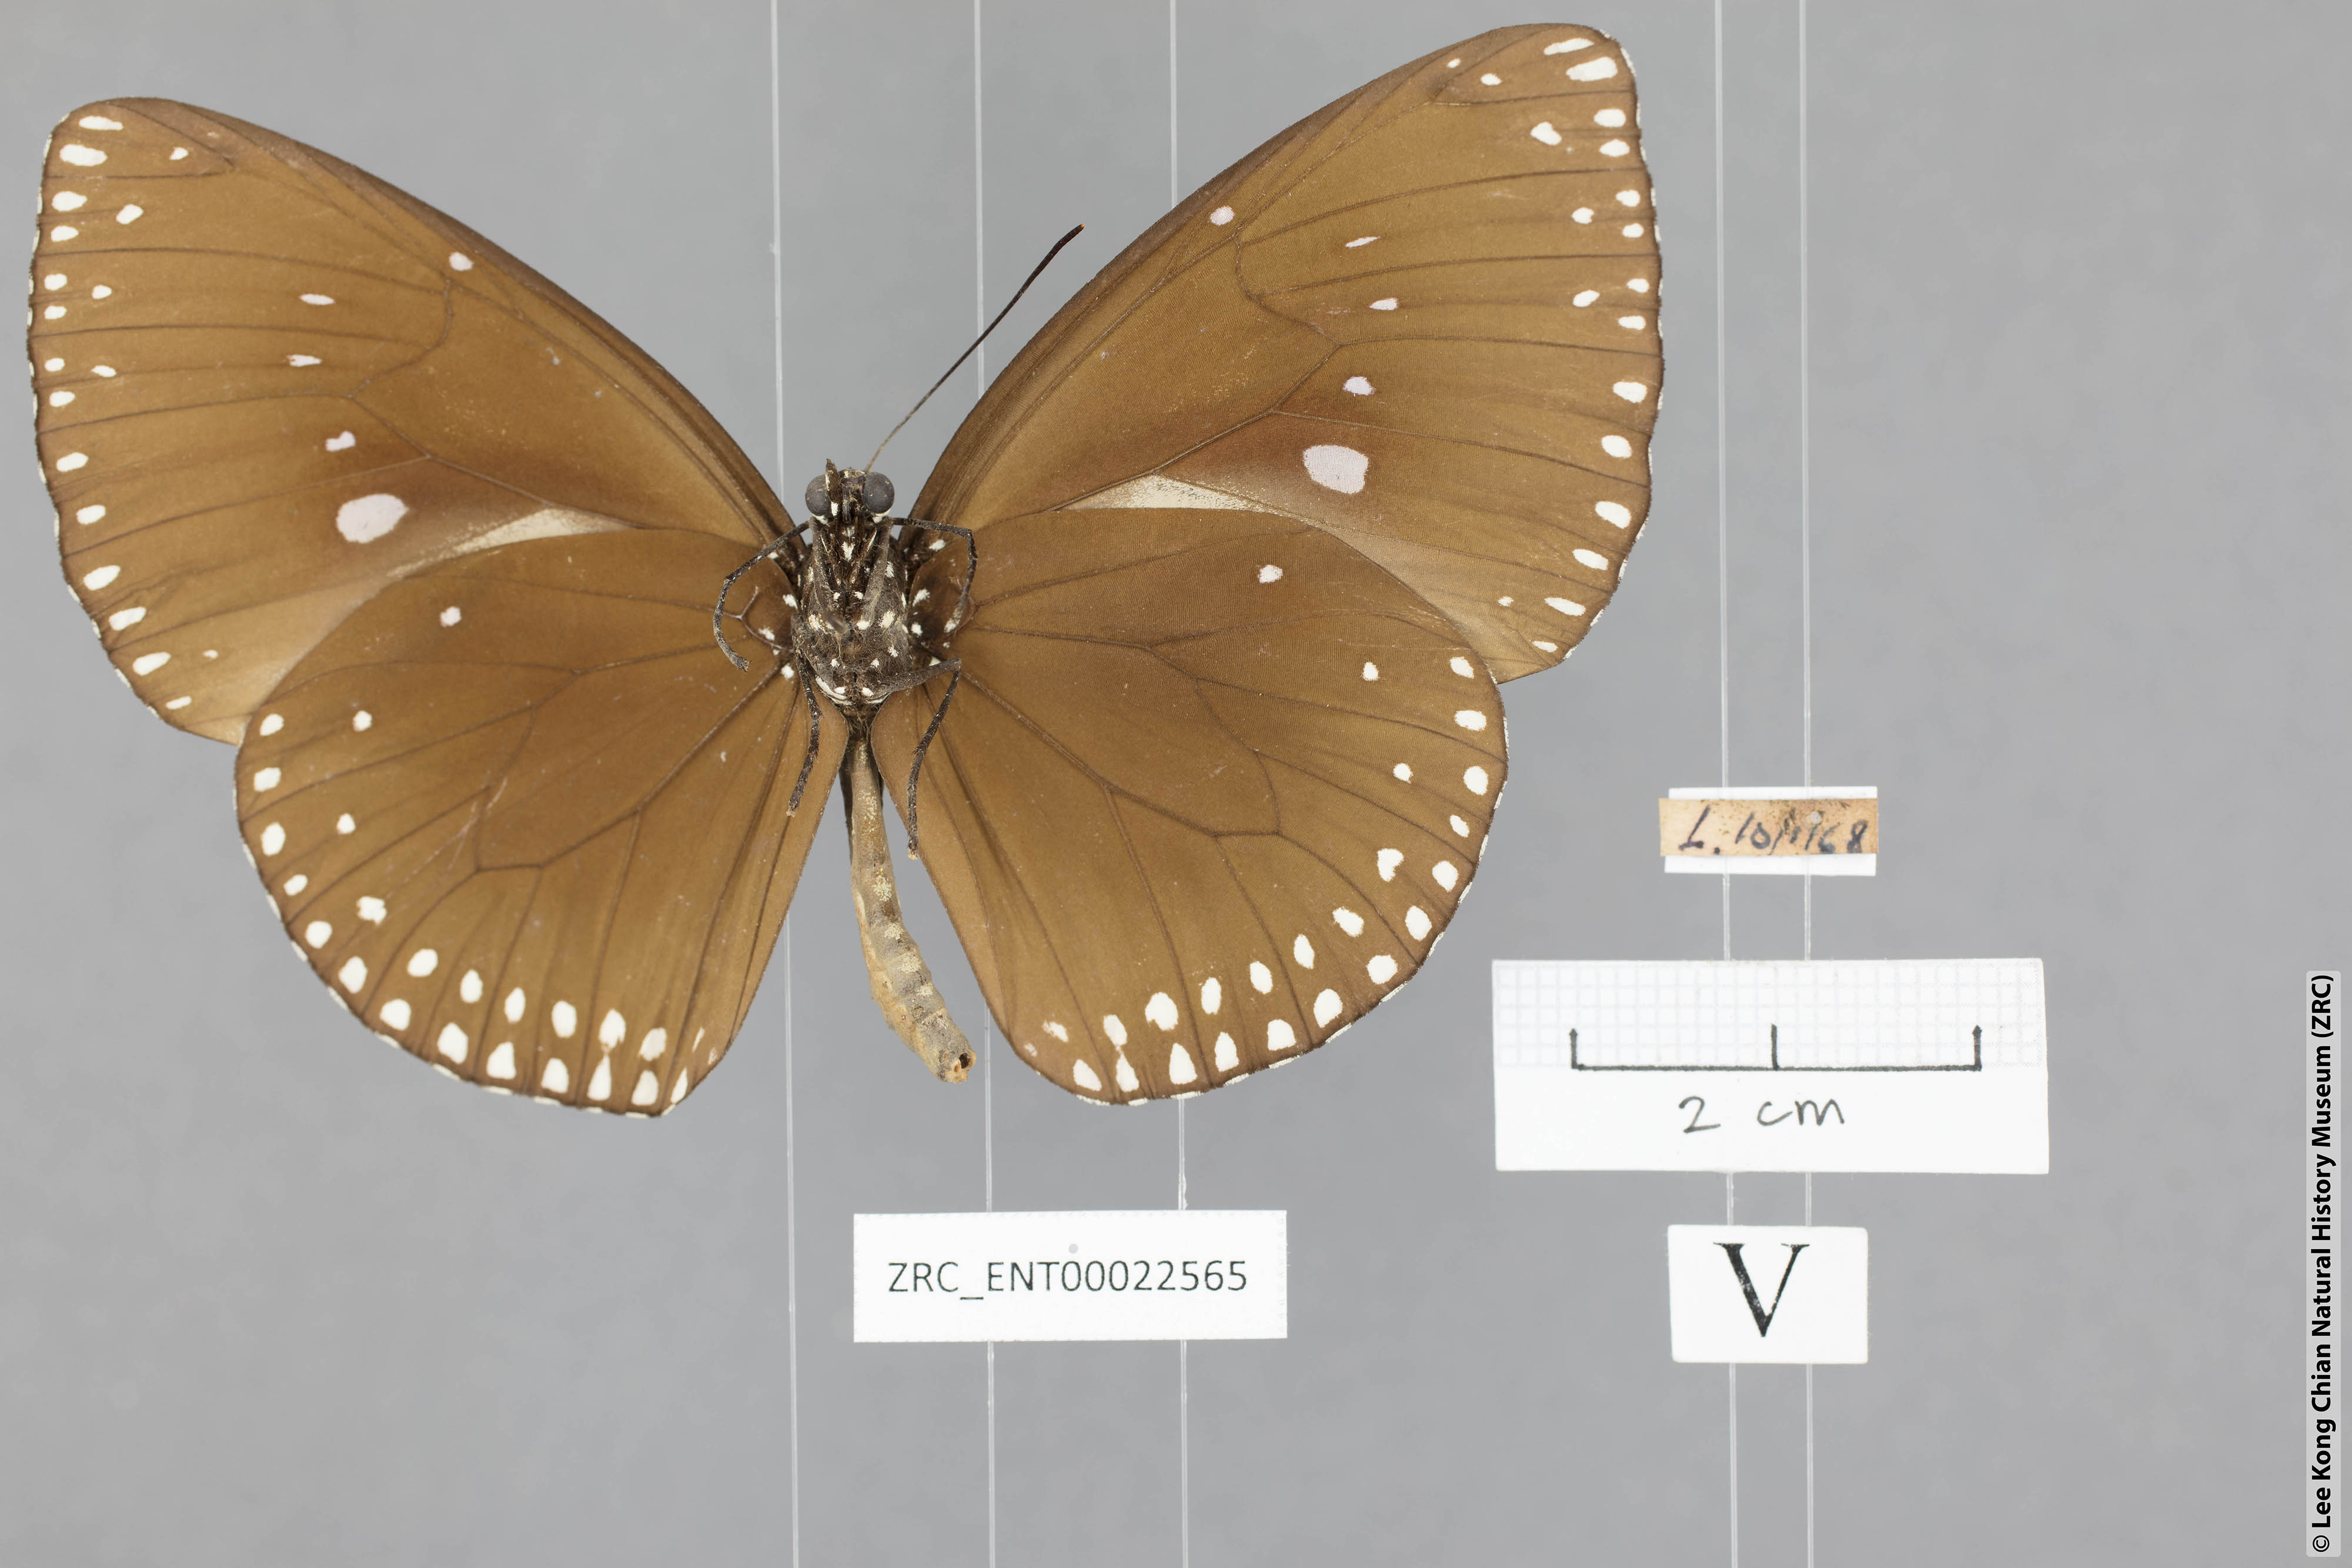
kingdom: Animalia
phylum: Arthropoda
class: Insecta
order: Lepidoptera
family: Nymphalidae
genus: Euploea
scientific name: Euploea klugii
